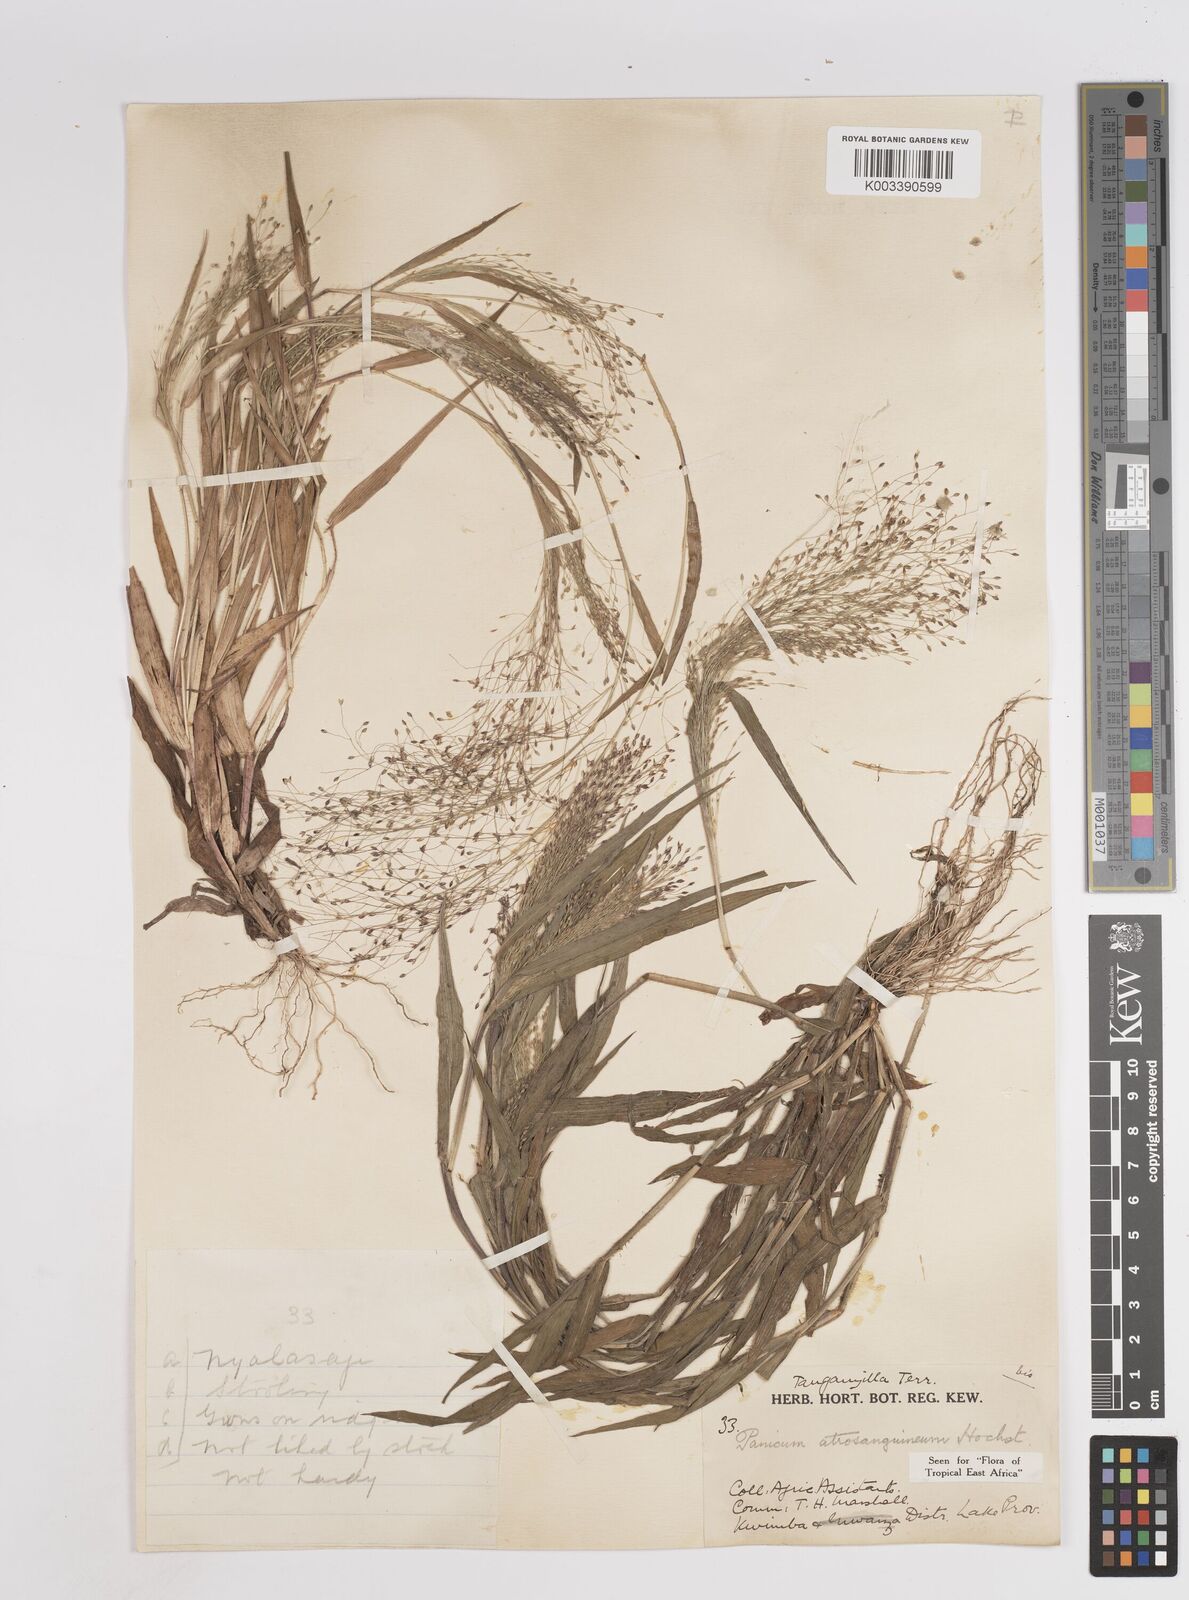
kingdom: Plantae
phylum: Tracheophyta
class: Liliopsida
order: Poales
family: Poaceae
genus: Panicum
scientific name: Panicum atrosanguineum
